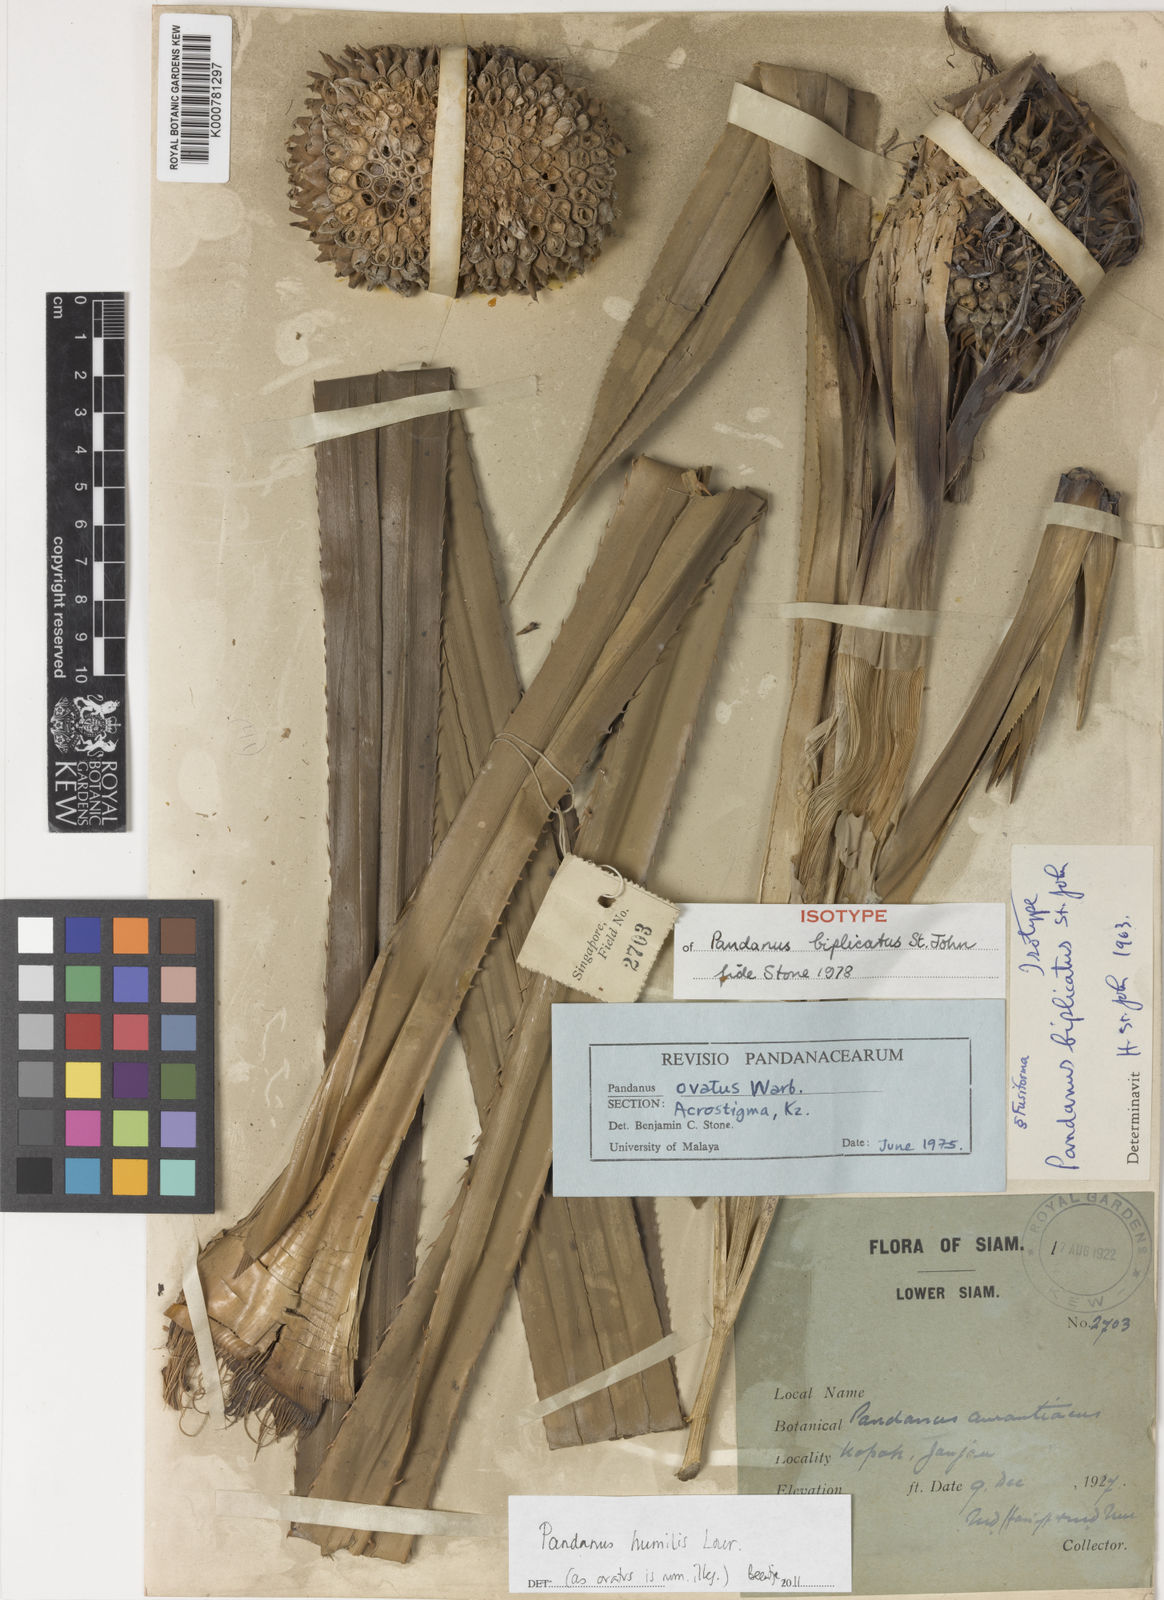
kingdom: Plantae
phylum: Tracheophyta
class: Liliopsida
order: Pandanales
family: Pandanaceae
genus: Benstonea
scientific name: Benstonea humilis
